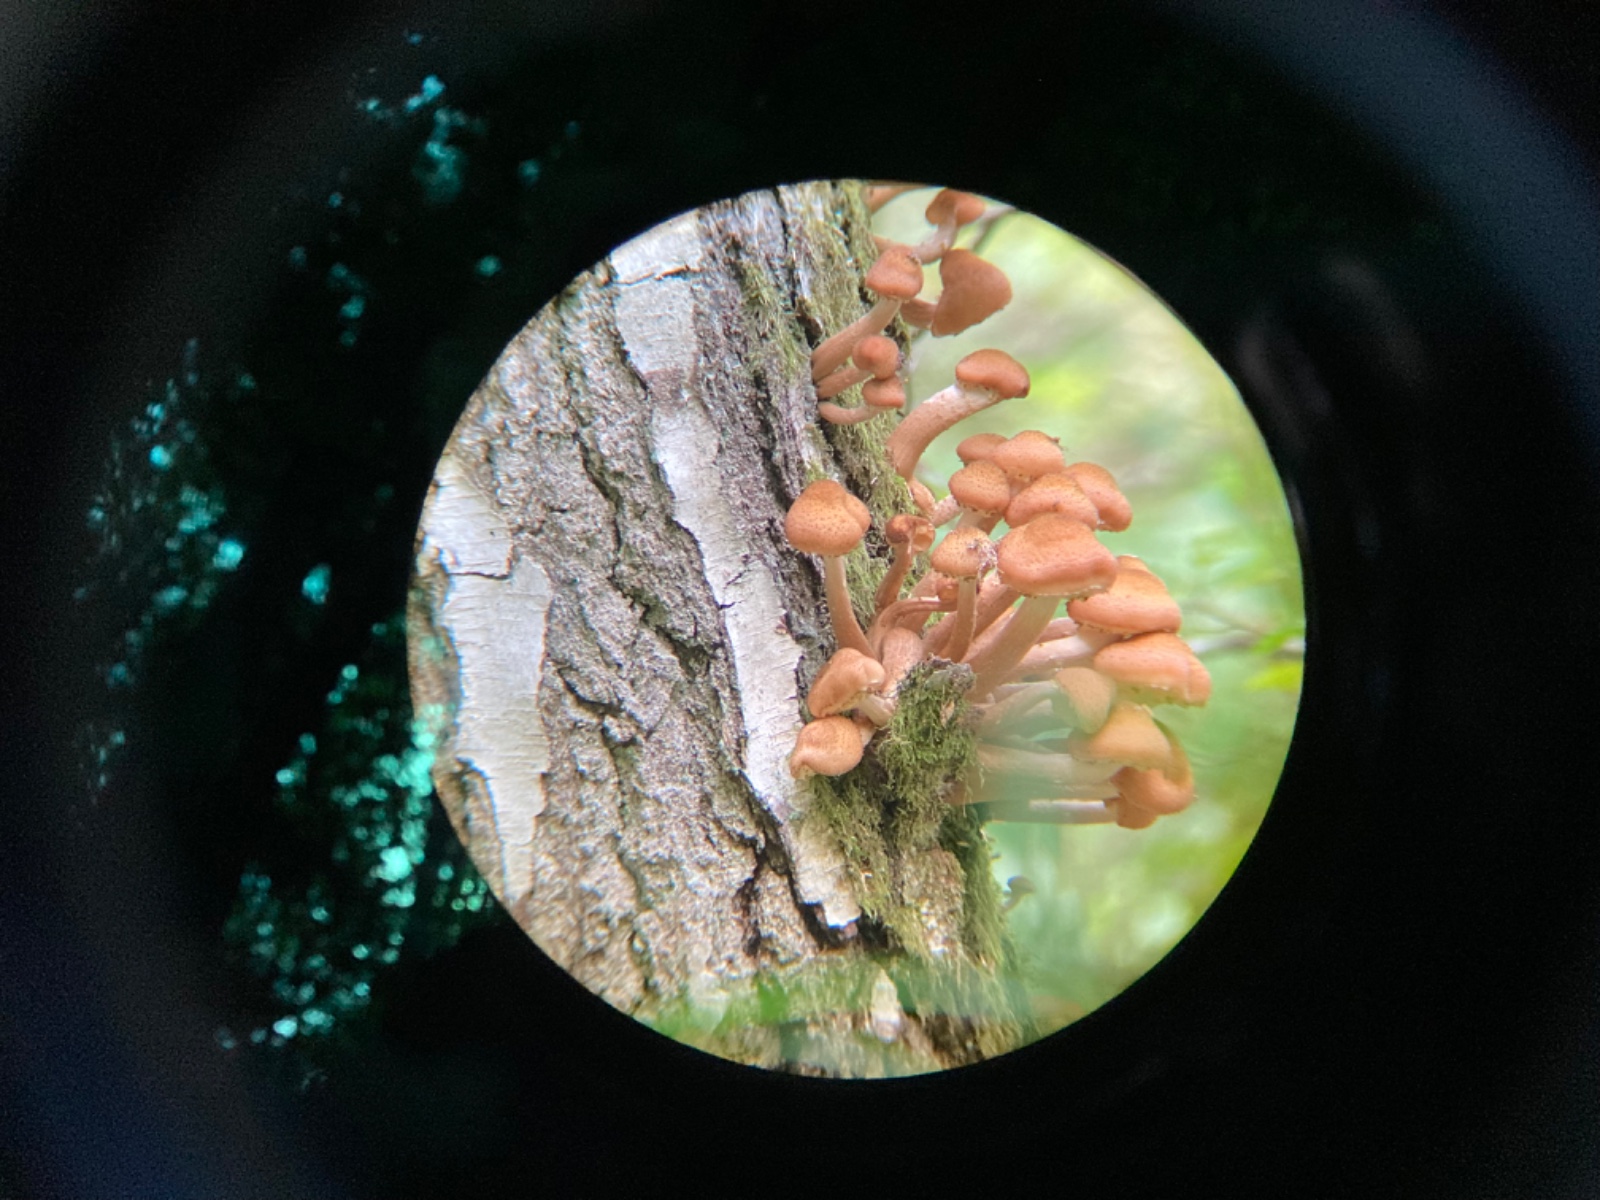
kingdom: Fungi
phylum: Basidiomycota
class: Agaricomycetes
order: Agaricales
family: Physalacriaceae
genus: Armillaria
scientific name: Armillaria
